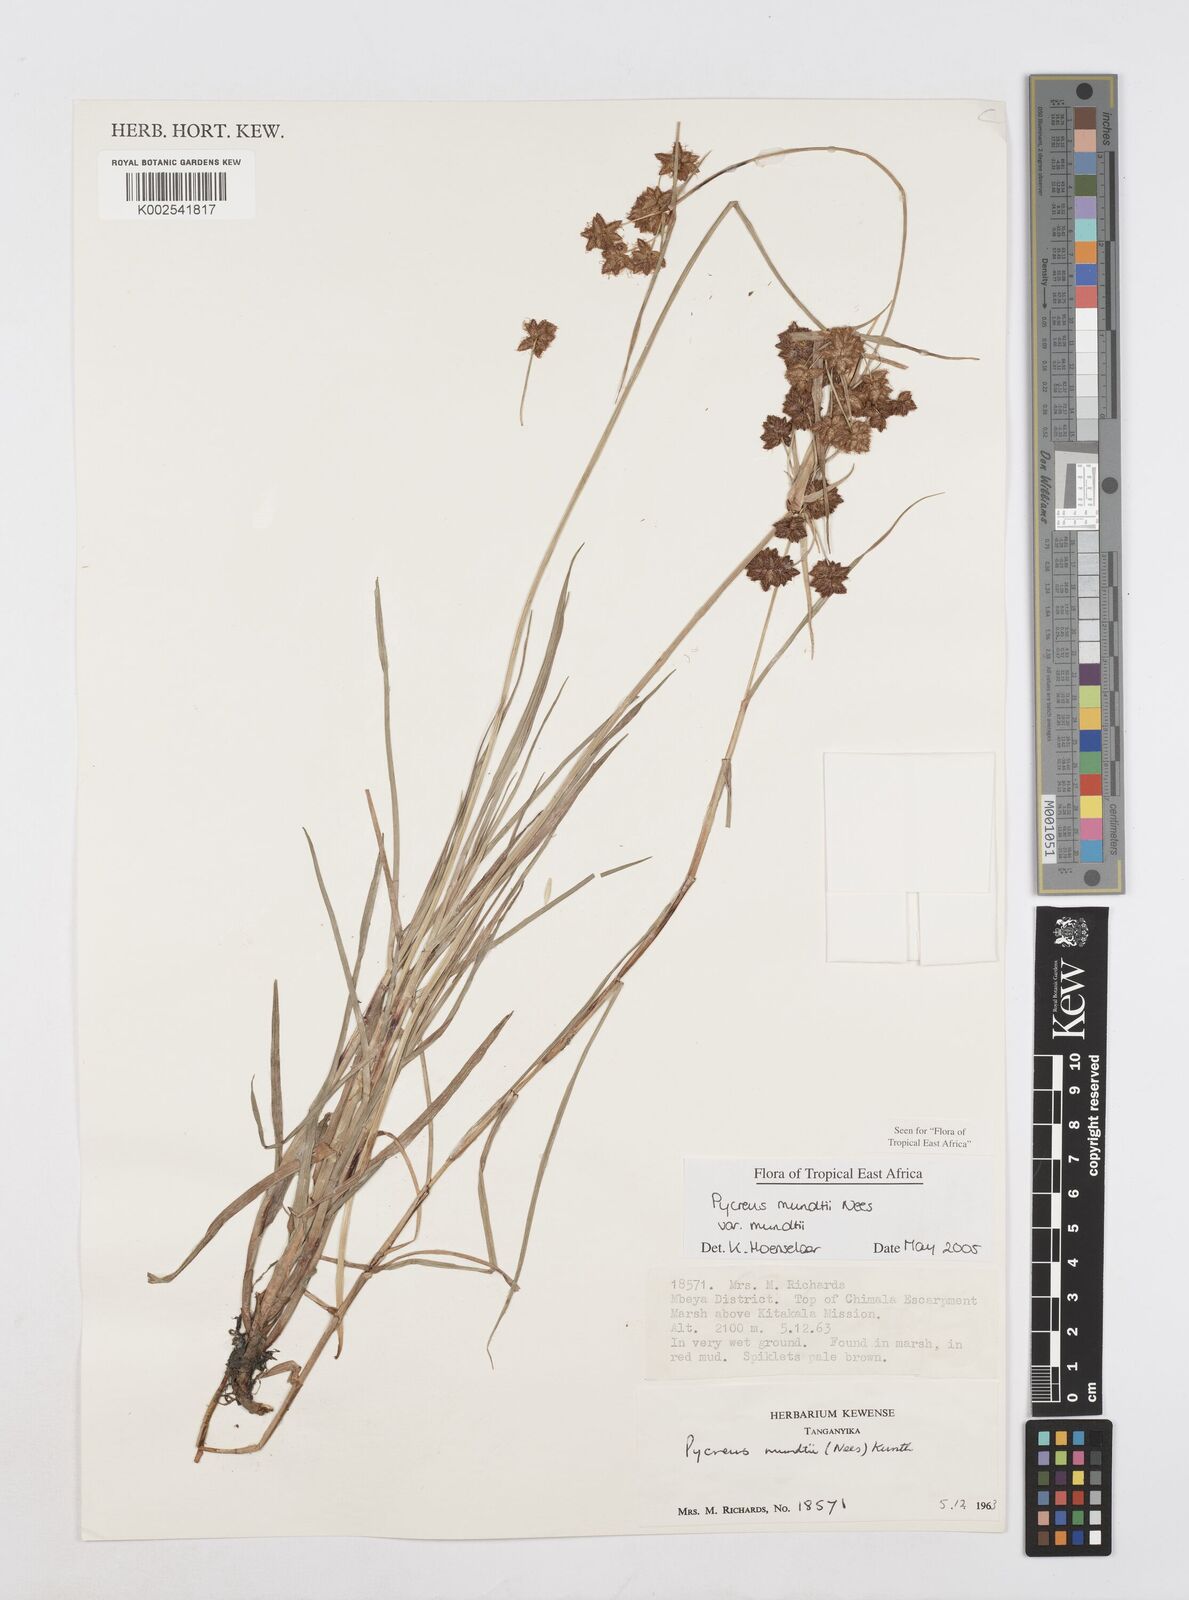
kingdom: Plantae
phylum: Tracheophyta
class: Liliopsida
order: Poales
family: Cyperaceae
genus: Cyperus
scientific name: Cyperus mundii
